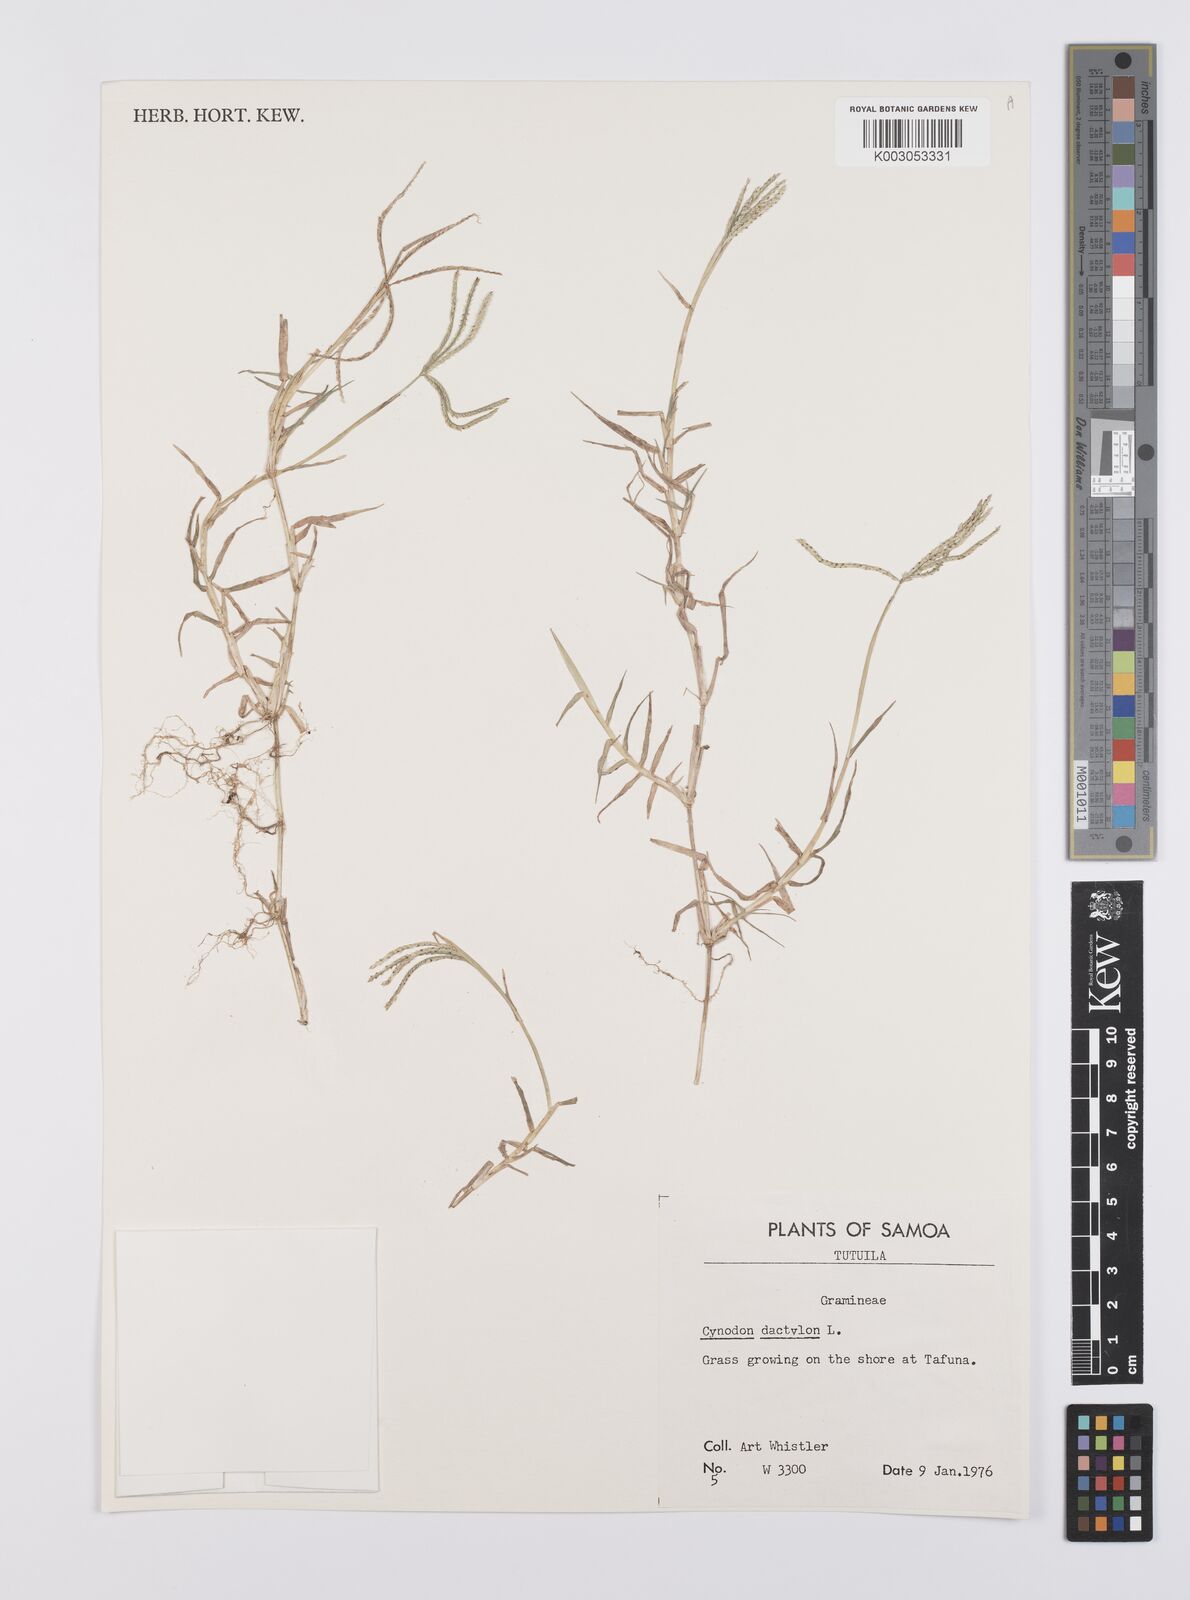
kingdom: Plantae
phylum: Tracheophyta
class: Liliopsida
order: Poales
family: Poaceae
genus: Cynodon
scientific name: Cynodon dactylon
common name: Bermuda grass
